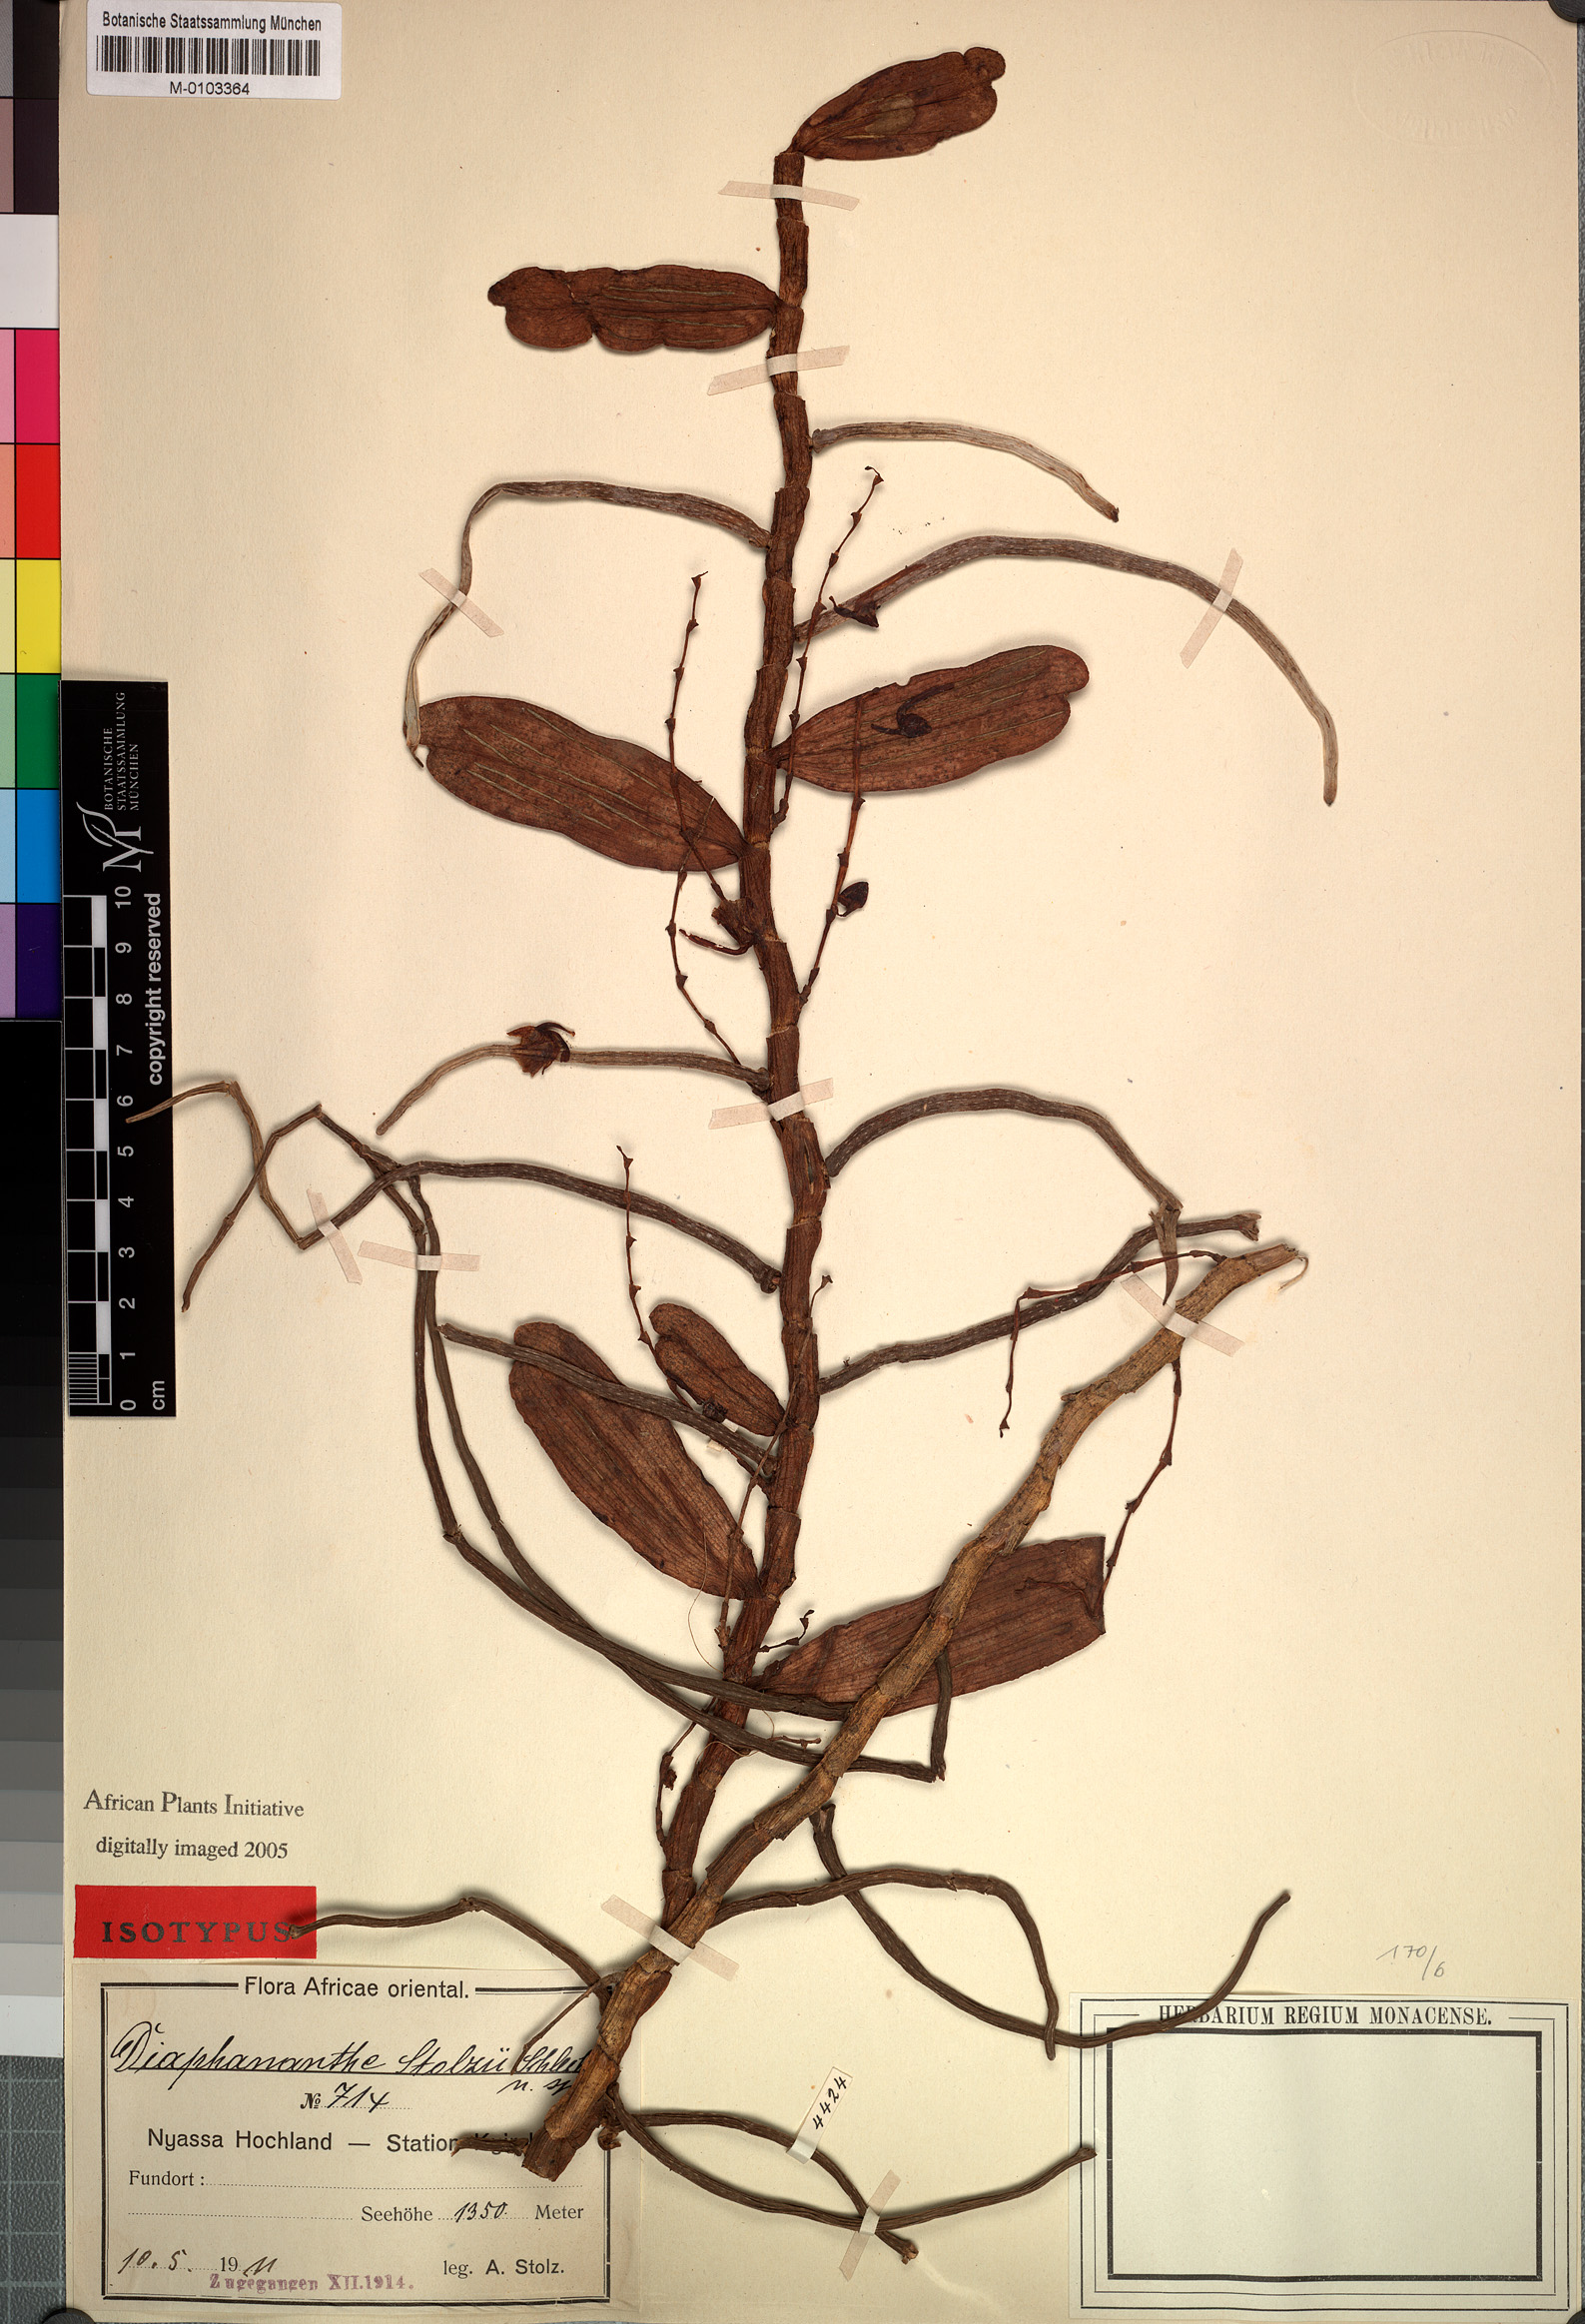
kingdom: Plantae
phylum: Tracheophyta
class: Liliopsida
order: Asparagales
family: Orchidaceae
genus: Rhipidoglossum
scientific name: Rhipidoglossum stolzii
